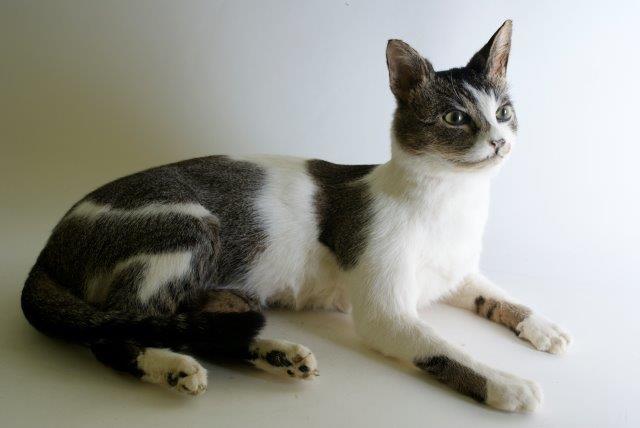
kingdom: Animalia
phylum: Chordata
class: Mammalia
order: Carnivora
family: Felidae
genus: Felis
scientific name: Felis catus
